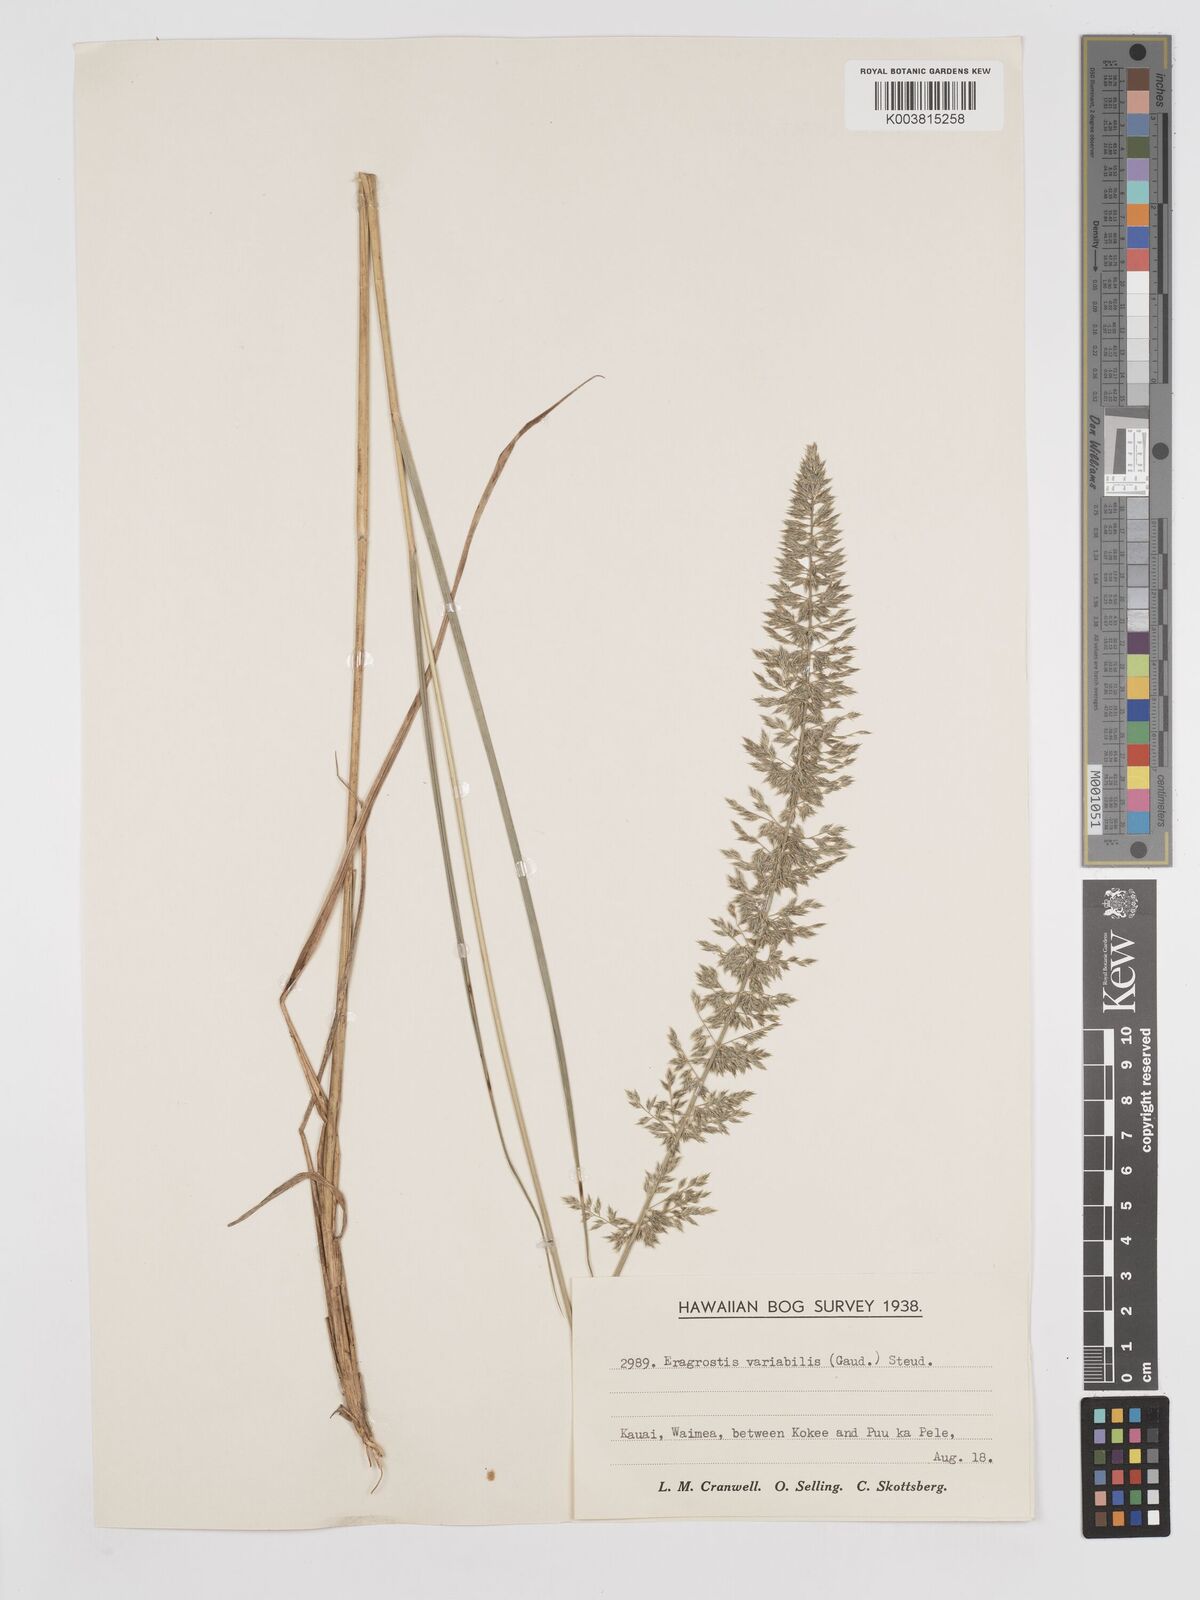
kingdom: Plantae
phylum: Tracheophyta
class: Liliopsida
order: Poales
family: Poaceae
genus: Eragrostis
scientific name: Eragrostis variabilis
